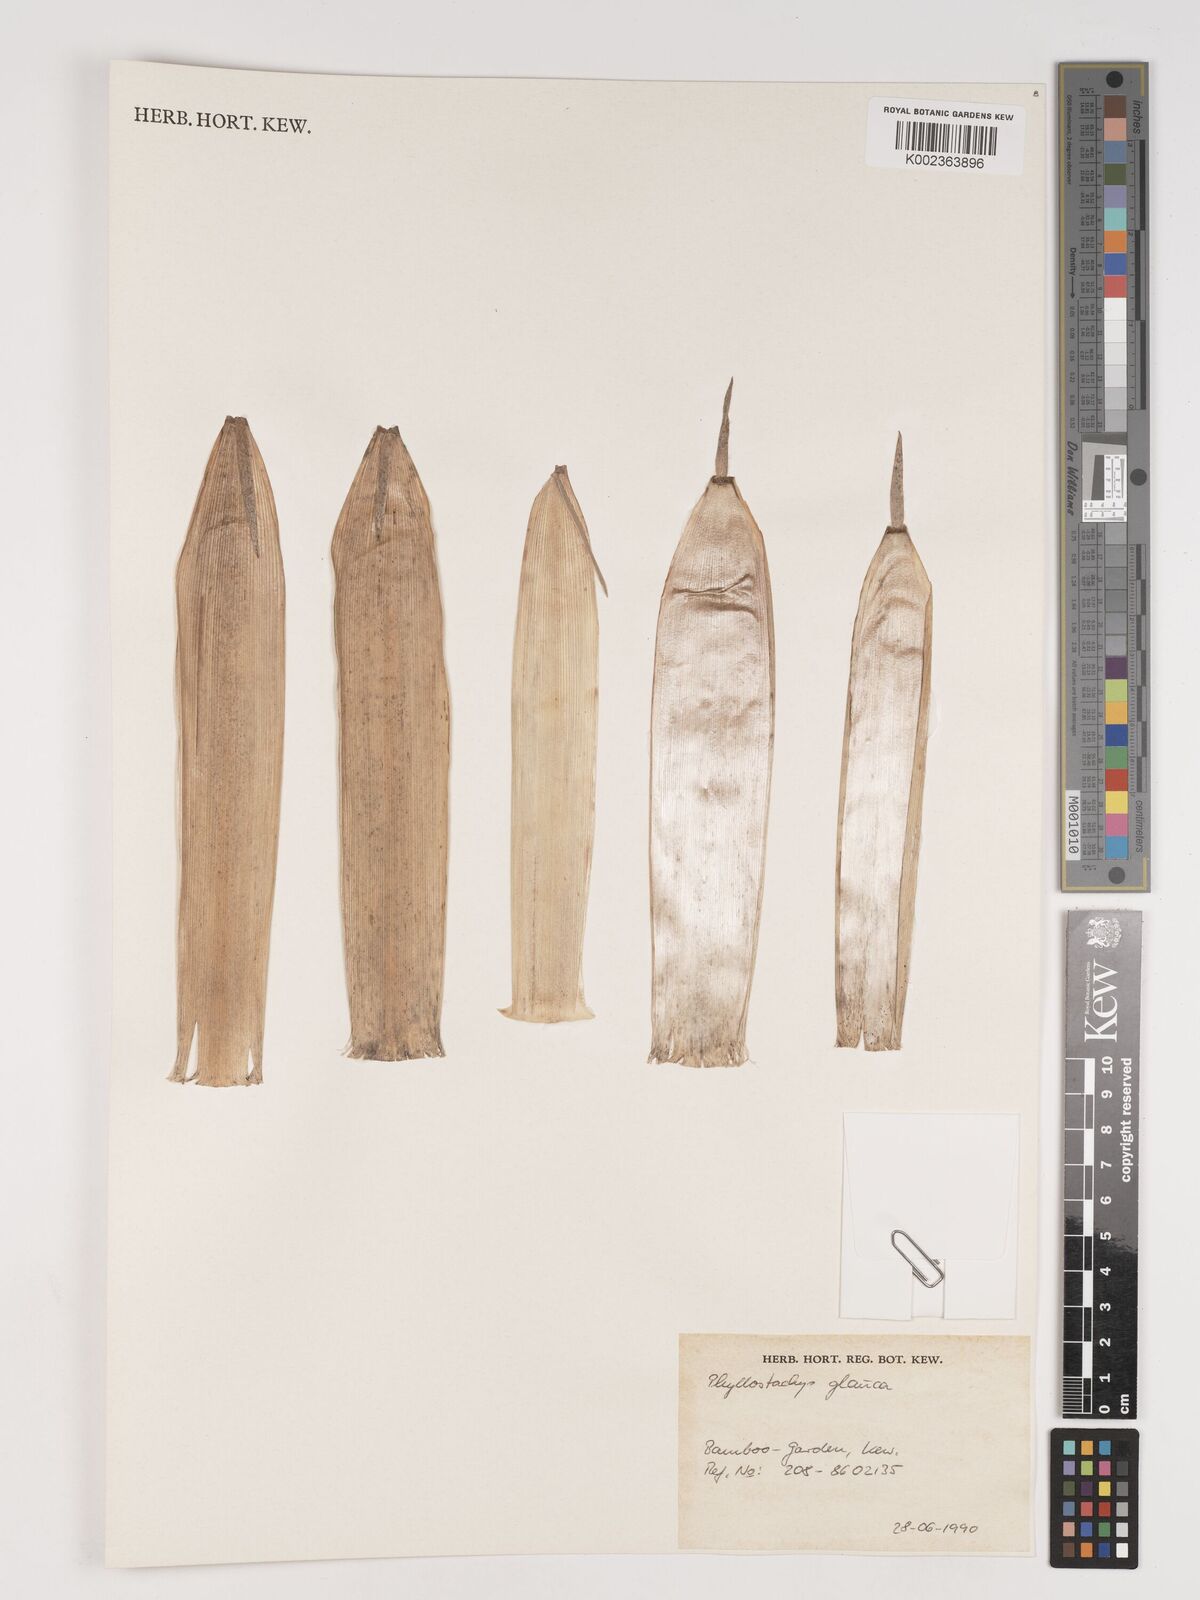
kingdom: Plantae
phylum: Tracheophyta
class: Liliopsida
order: Poales
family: Poaceae
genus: Phyllostachys
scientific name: Phyllostachys glauca
